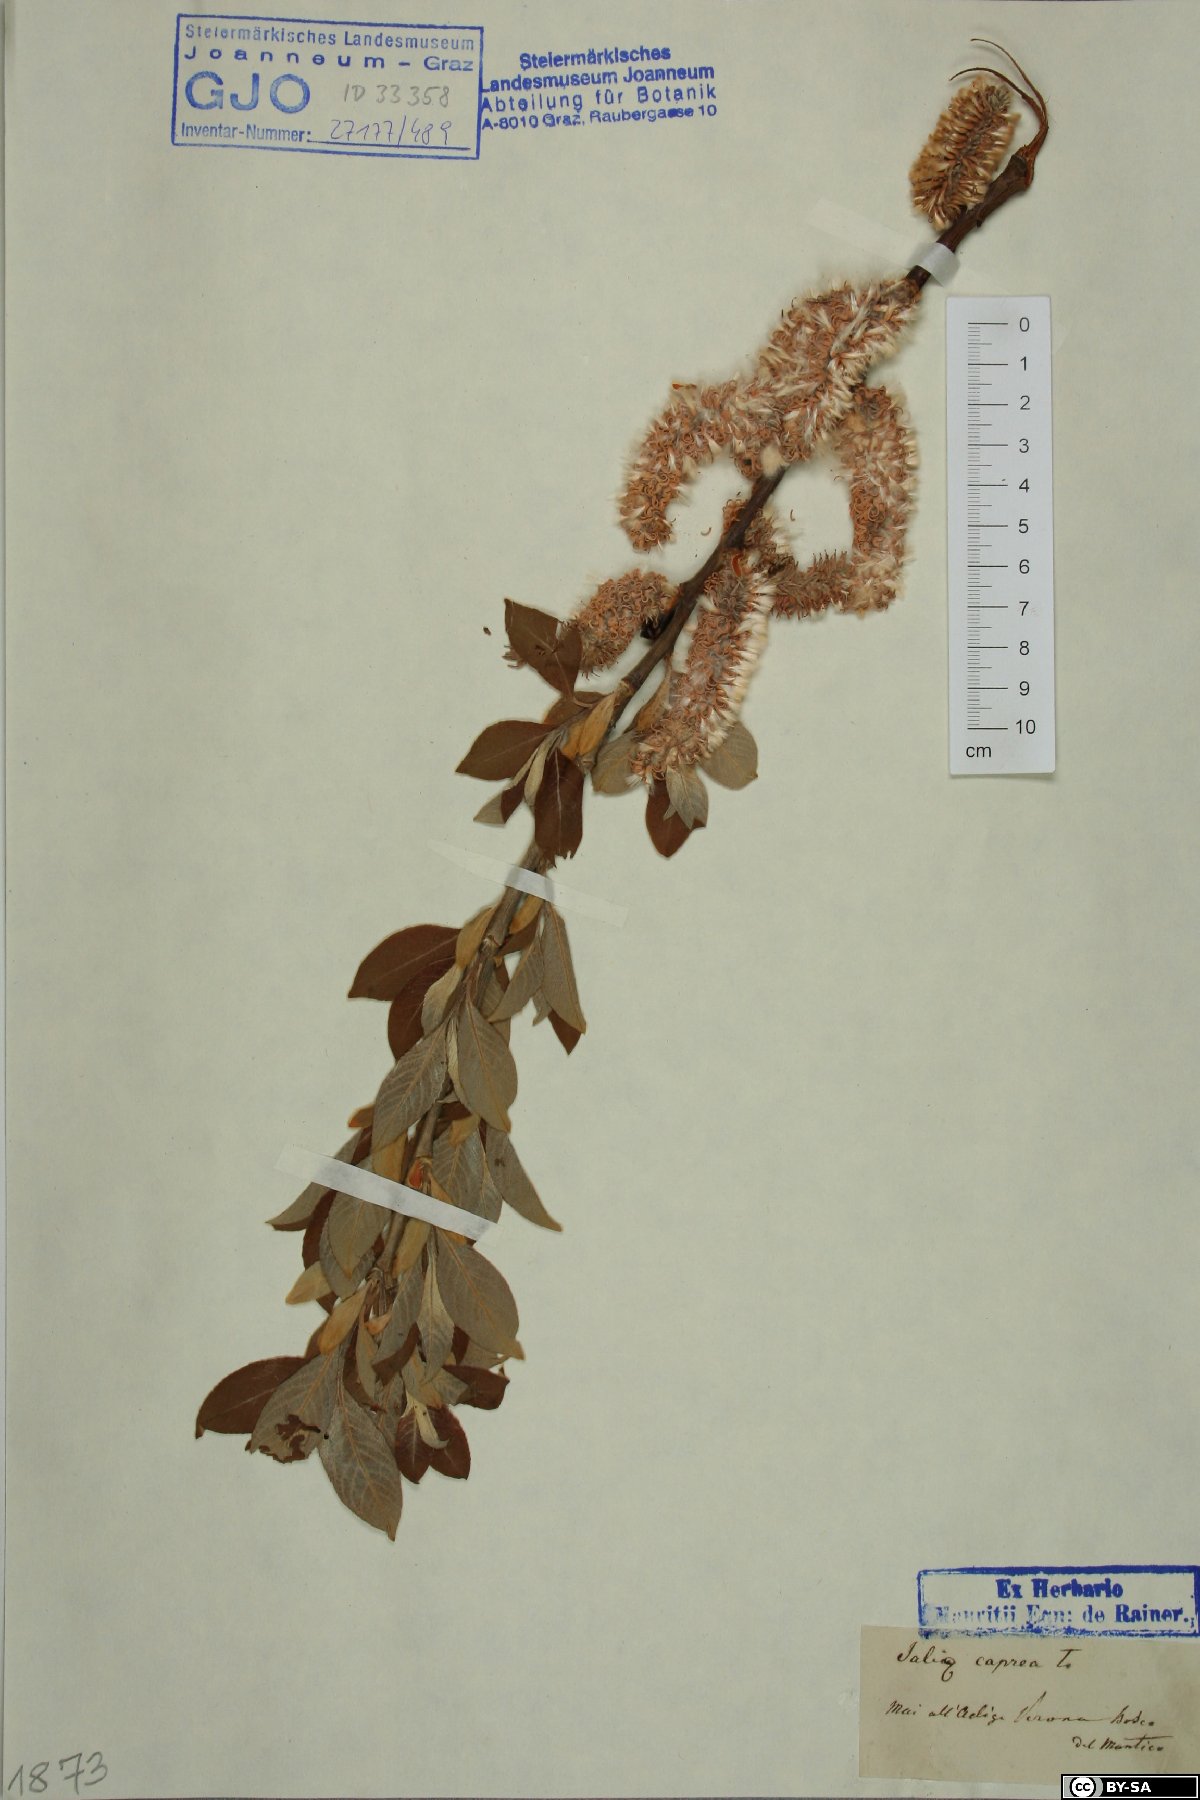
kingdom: Plantae
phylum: Tracheophyta
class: Magnoliopsida
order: Malpighiales
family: Salicaceae
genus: Salix
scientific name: Salix caprea
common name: Goat willow
